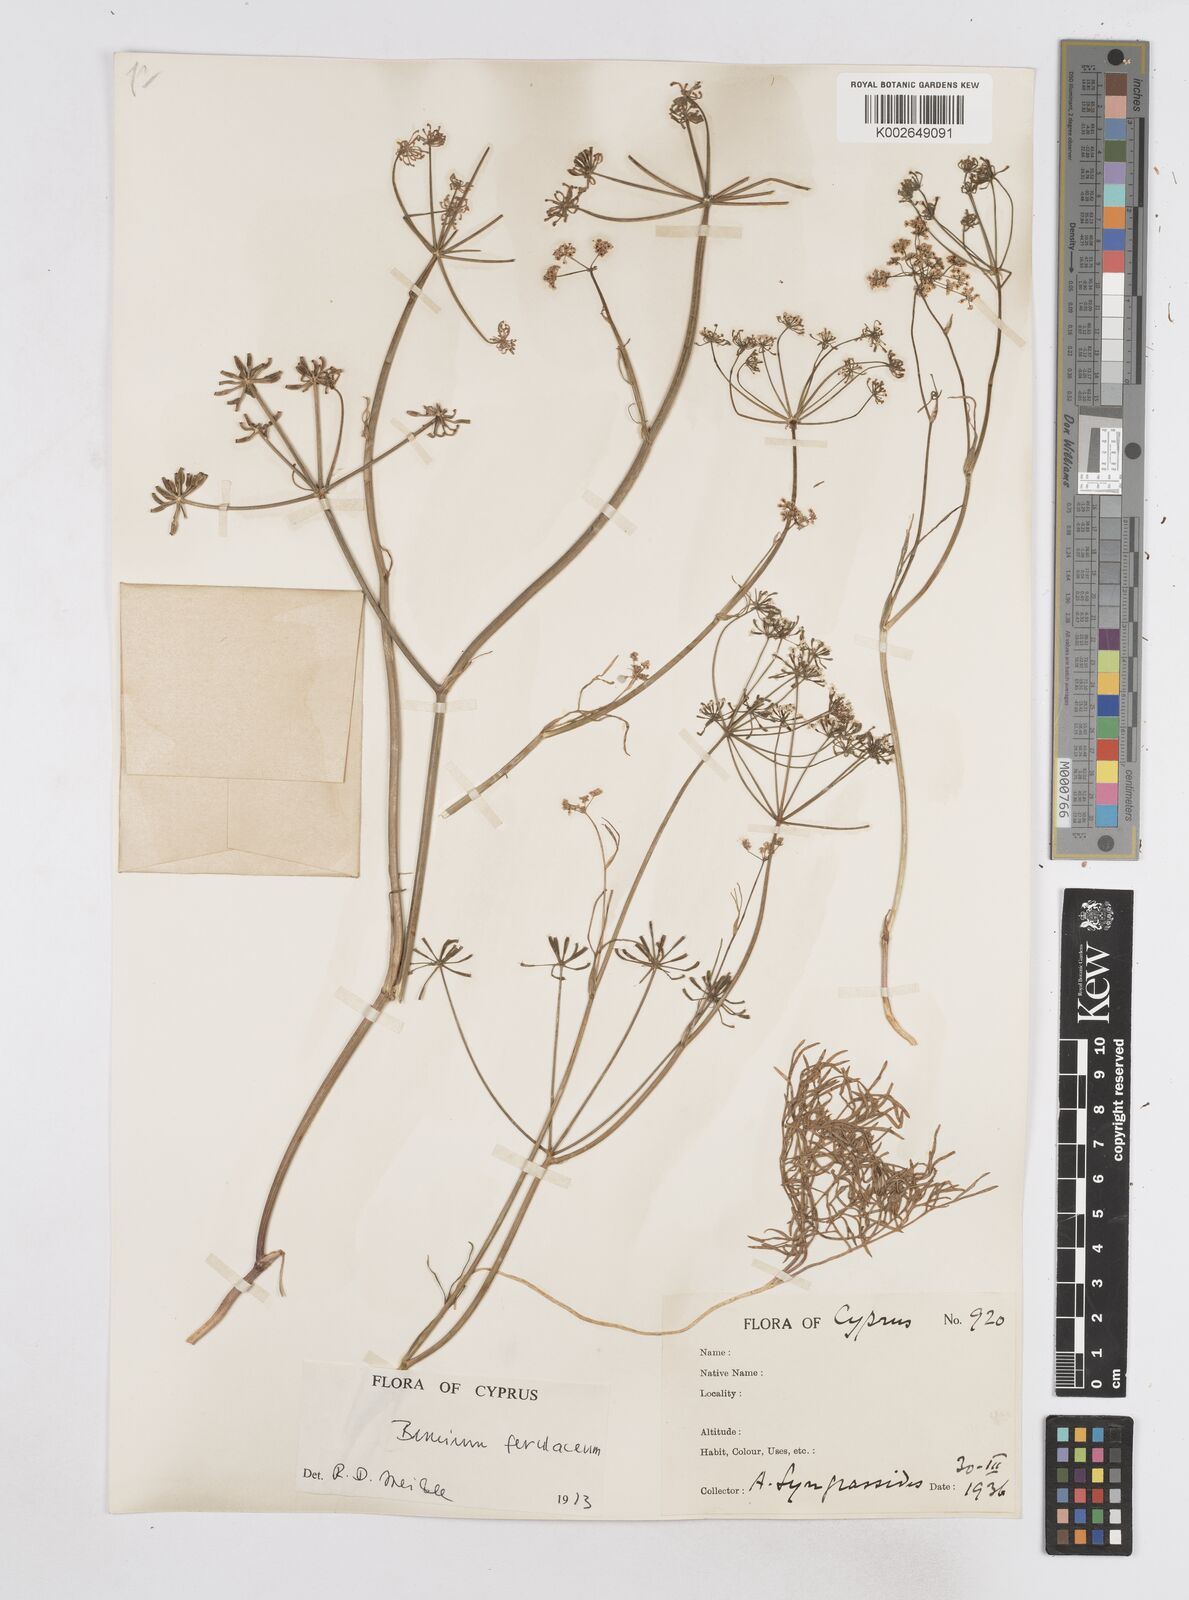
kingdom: Plantae
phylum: Tracheophyta
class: Magnoliopsida
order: Apiales
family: Apiaceae
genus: Bunium
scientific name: Bunium ferulaceum
